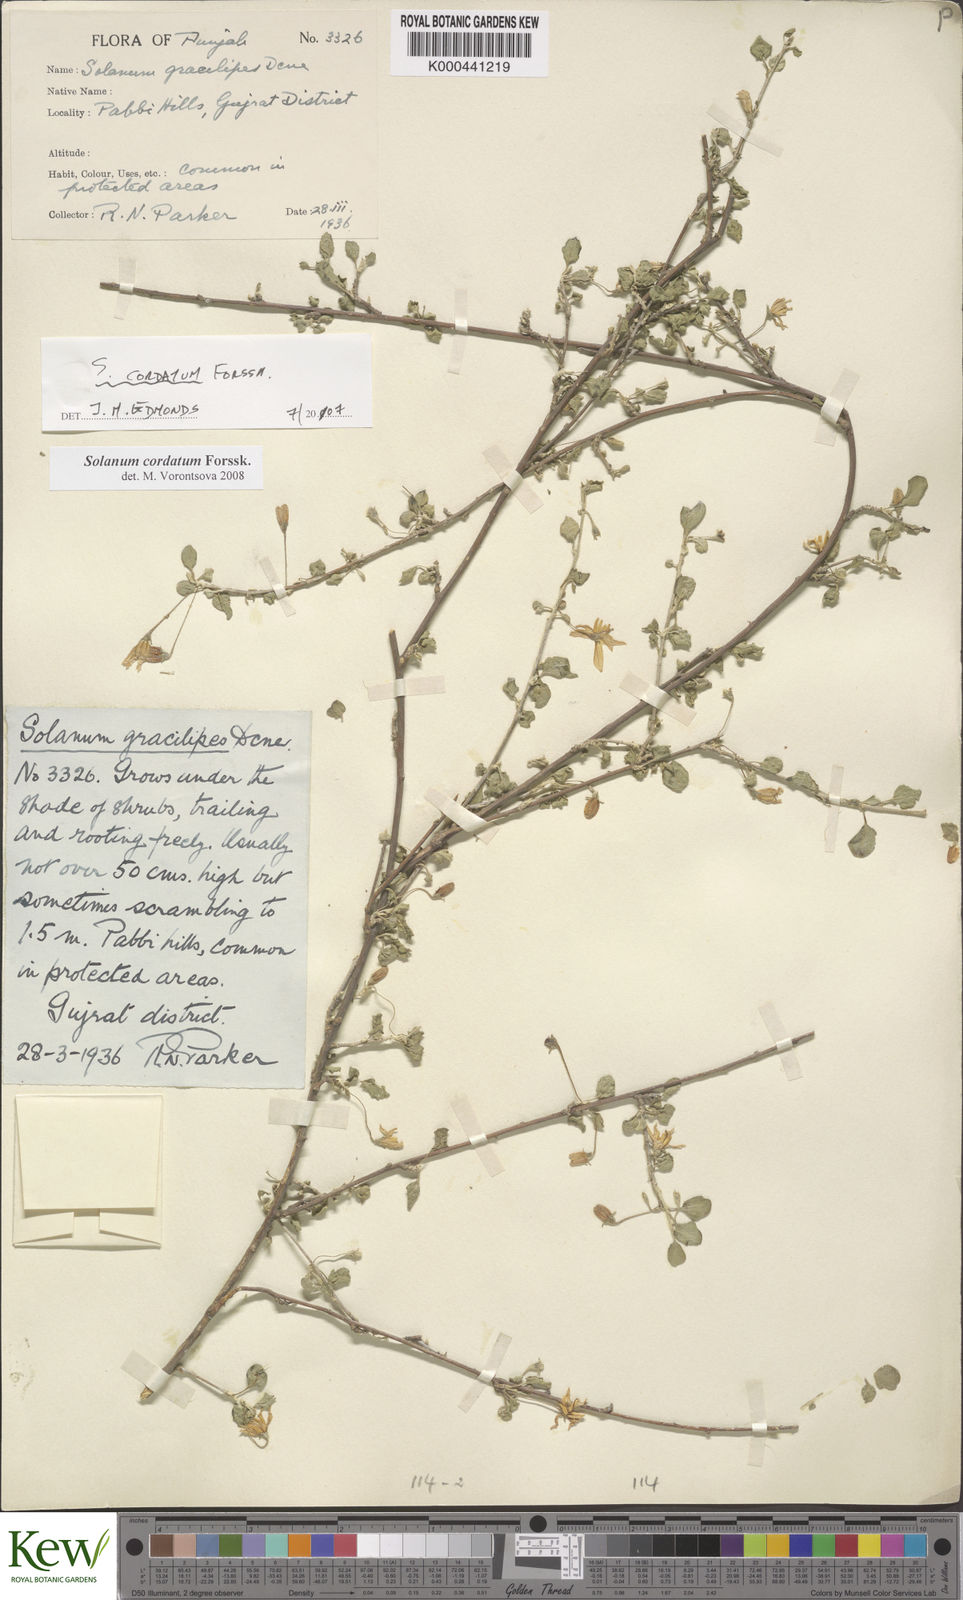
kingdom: Plantae
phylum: Tracheophyta
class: Magnoliopsida
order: Solanales
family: Solanaceae
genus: Solanum
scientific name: Solanum cordatum
